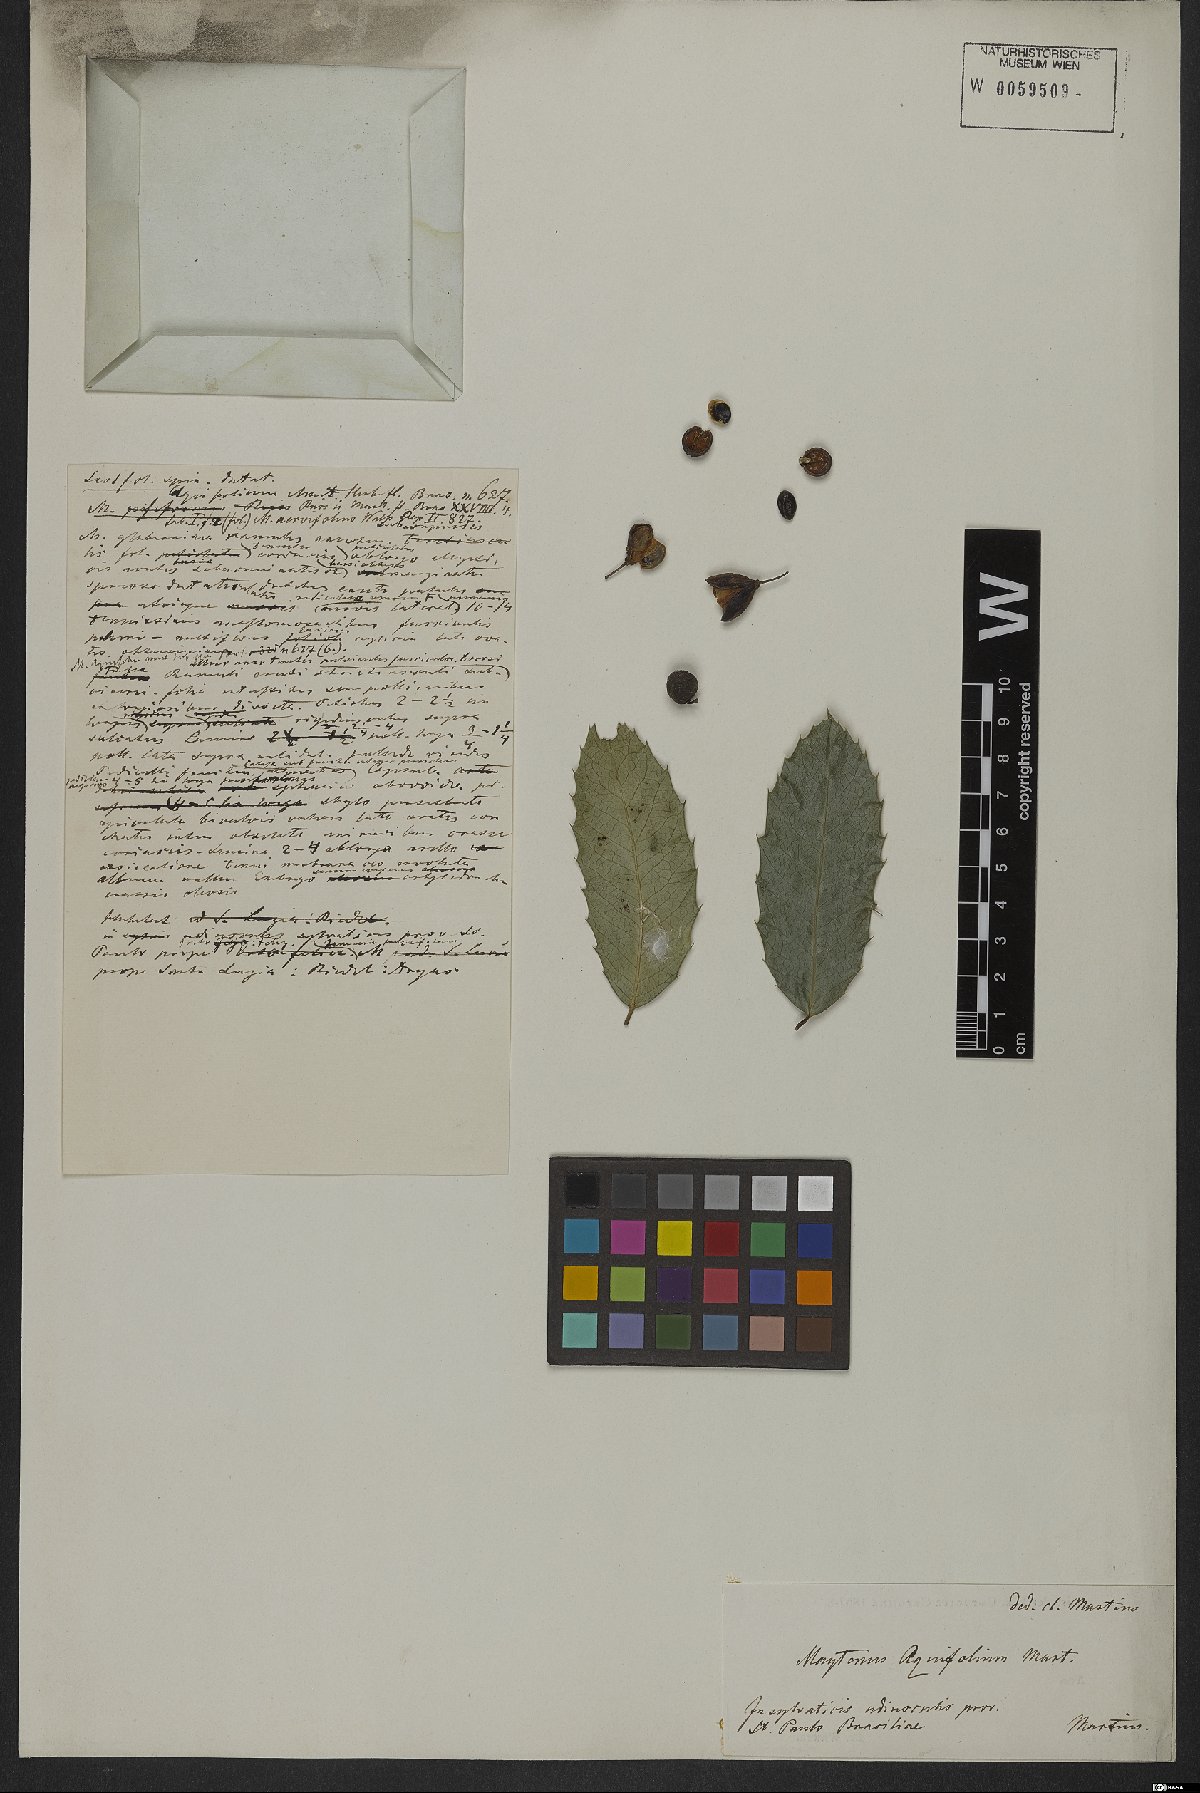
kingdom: Plantae
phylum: Tracheophyta
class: Magnoliopsida
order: Celastrales
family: Celastraceae
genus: Monteverdia
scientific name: Monteverdia aquifolium
